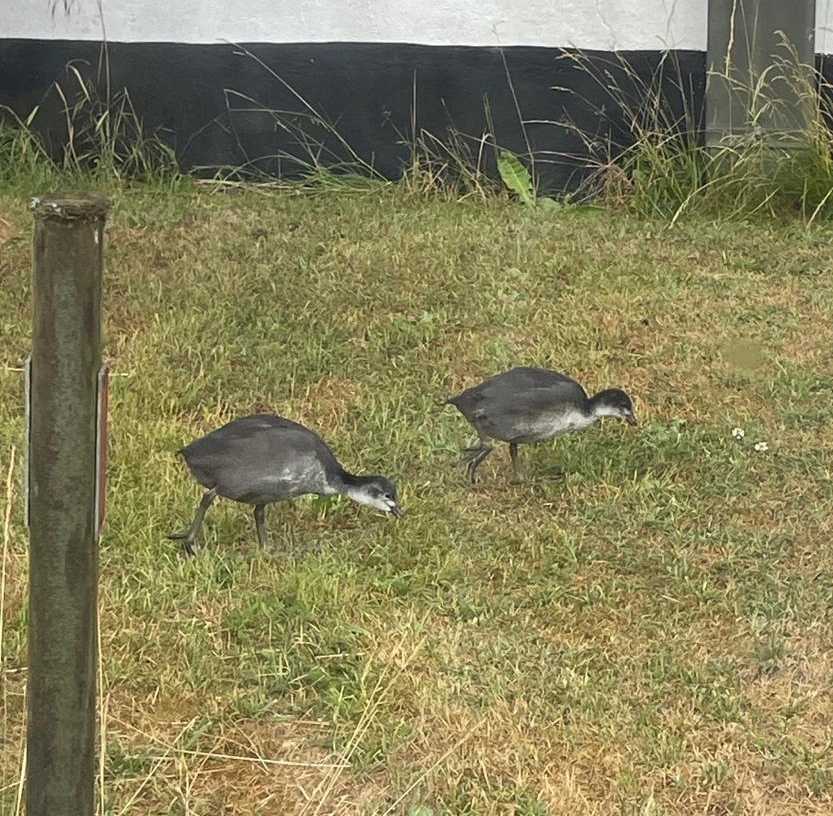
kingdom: Animalia
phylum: Chordata
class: Aves
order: Gruiformes
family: Rallidae
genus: Fulica
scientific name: Fulica atra
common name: Blishøne
